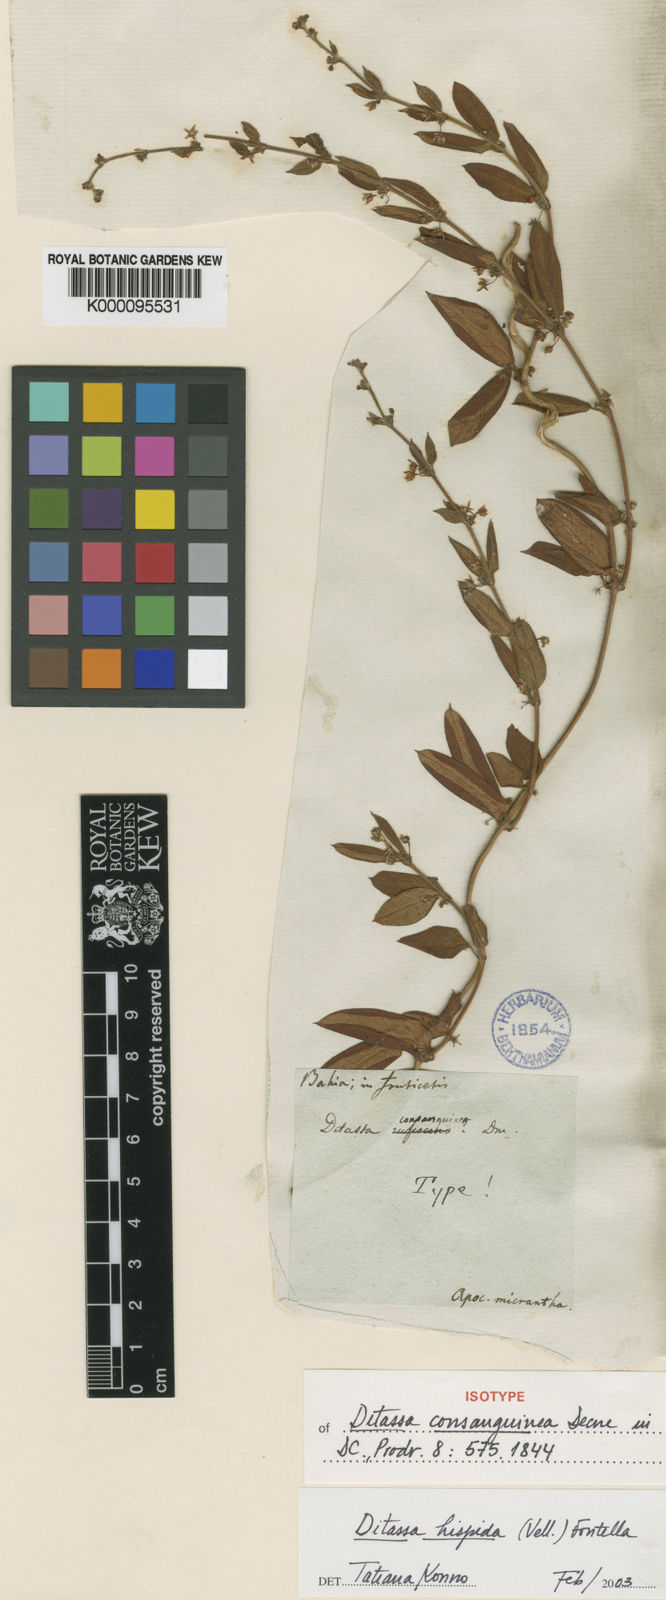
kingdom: Plantae
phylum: Tracheophyta
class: Magnoliopsida
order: Gentianales
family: Apocynaceae
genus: Ditassa
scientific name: Ditassa hispida
